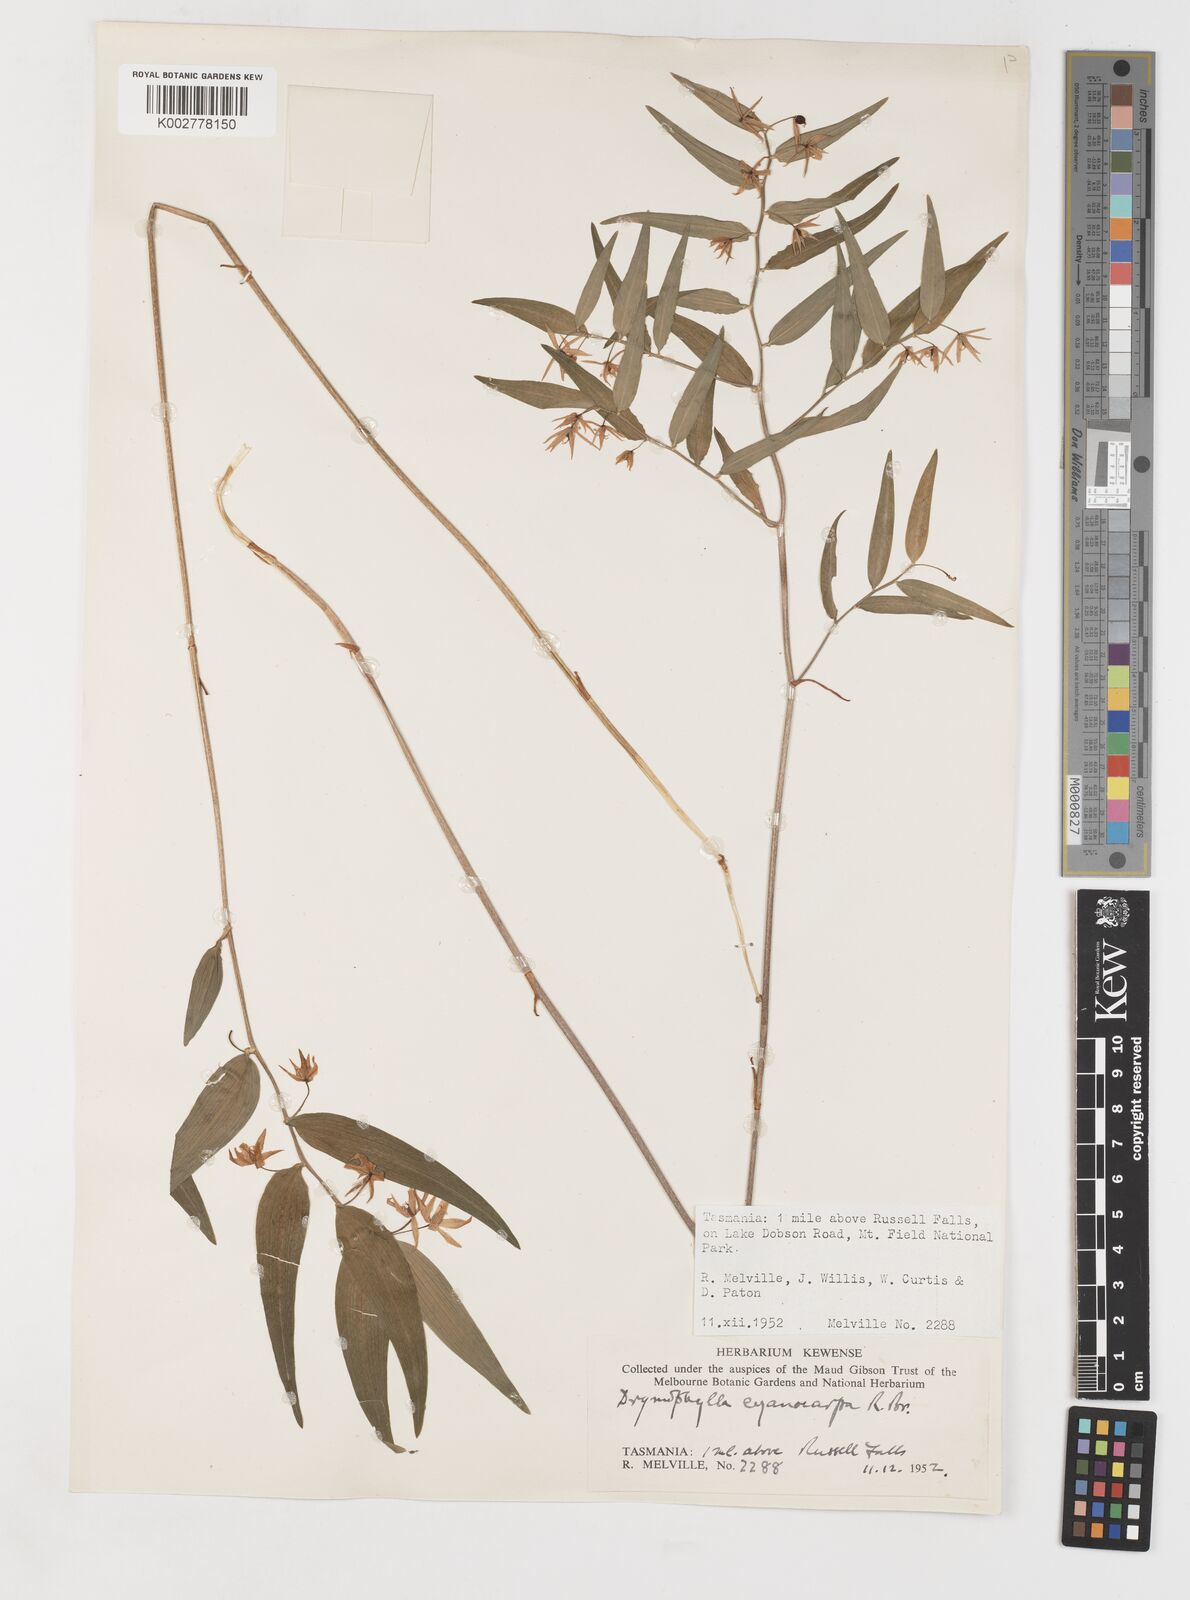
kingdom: Plantae
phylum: Tracheophyta
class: Liliopsida
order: Liliales
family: Alstroemeriaceae
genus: Drymophila
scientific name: Drymophila cyanocarpa
